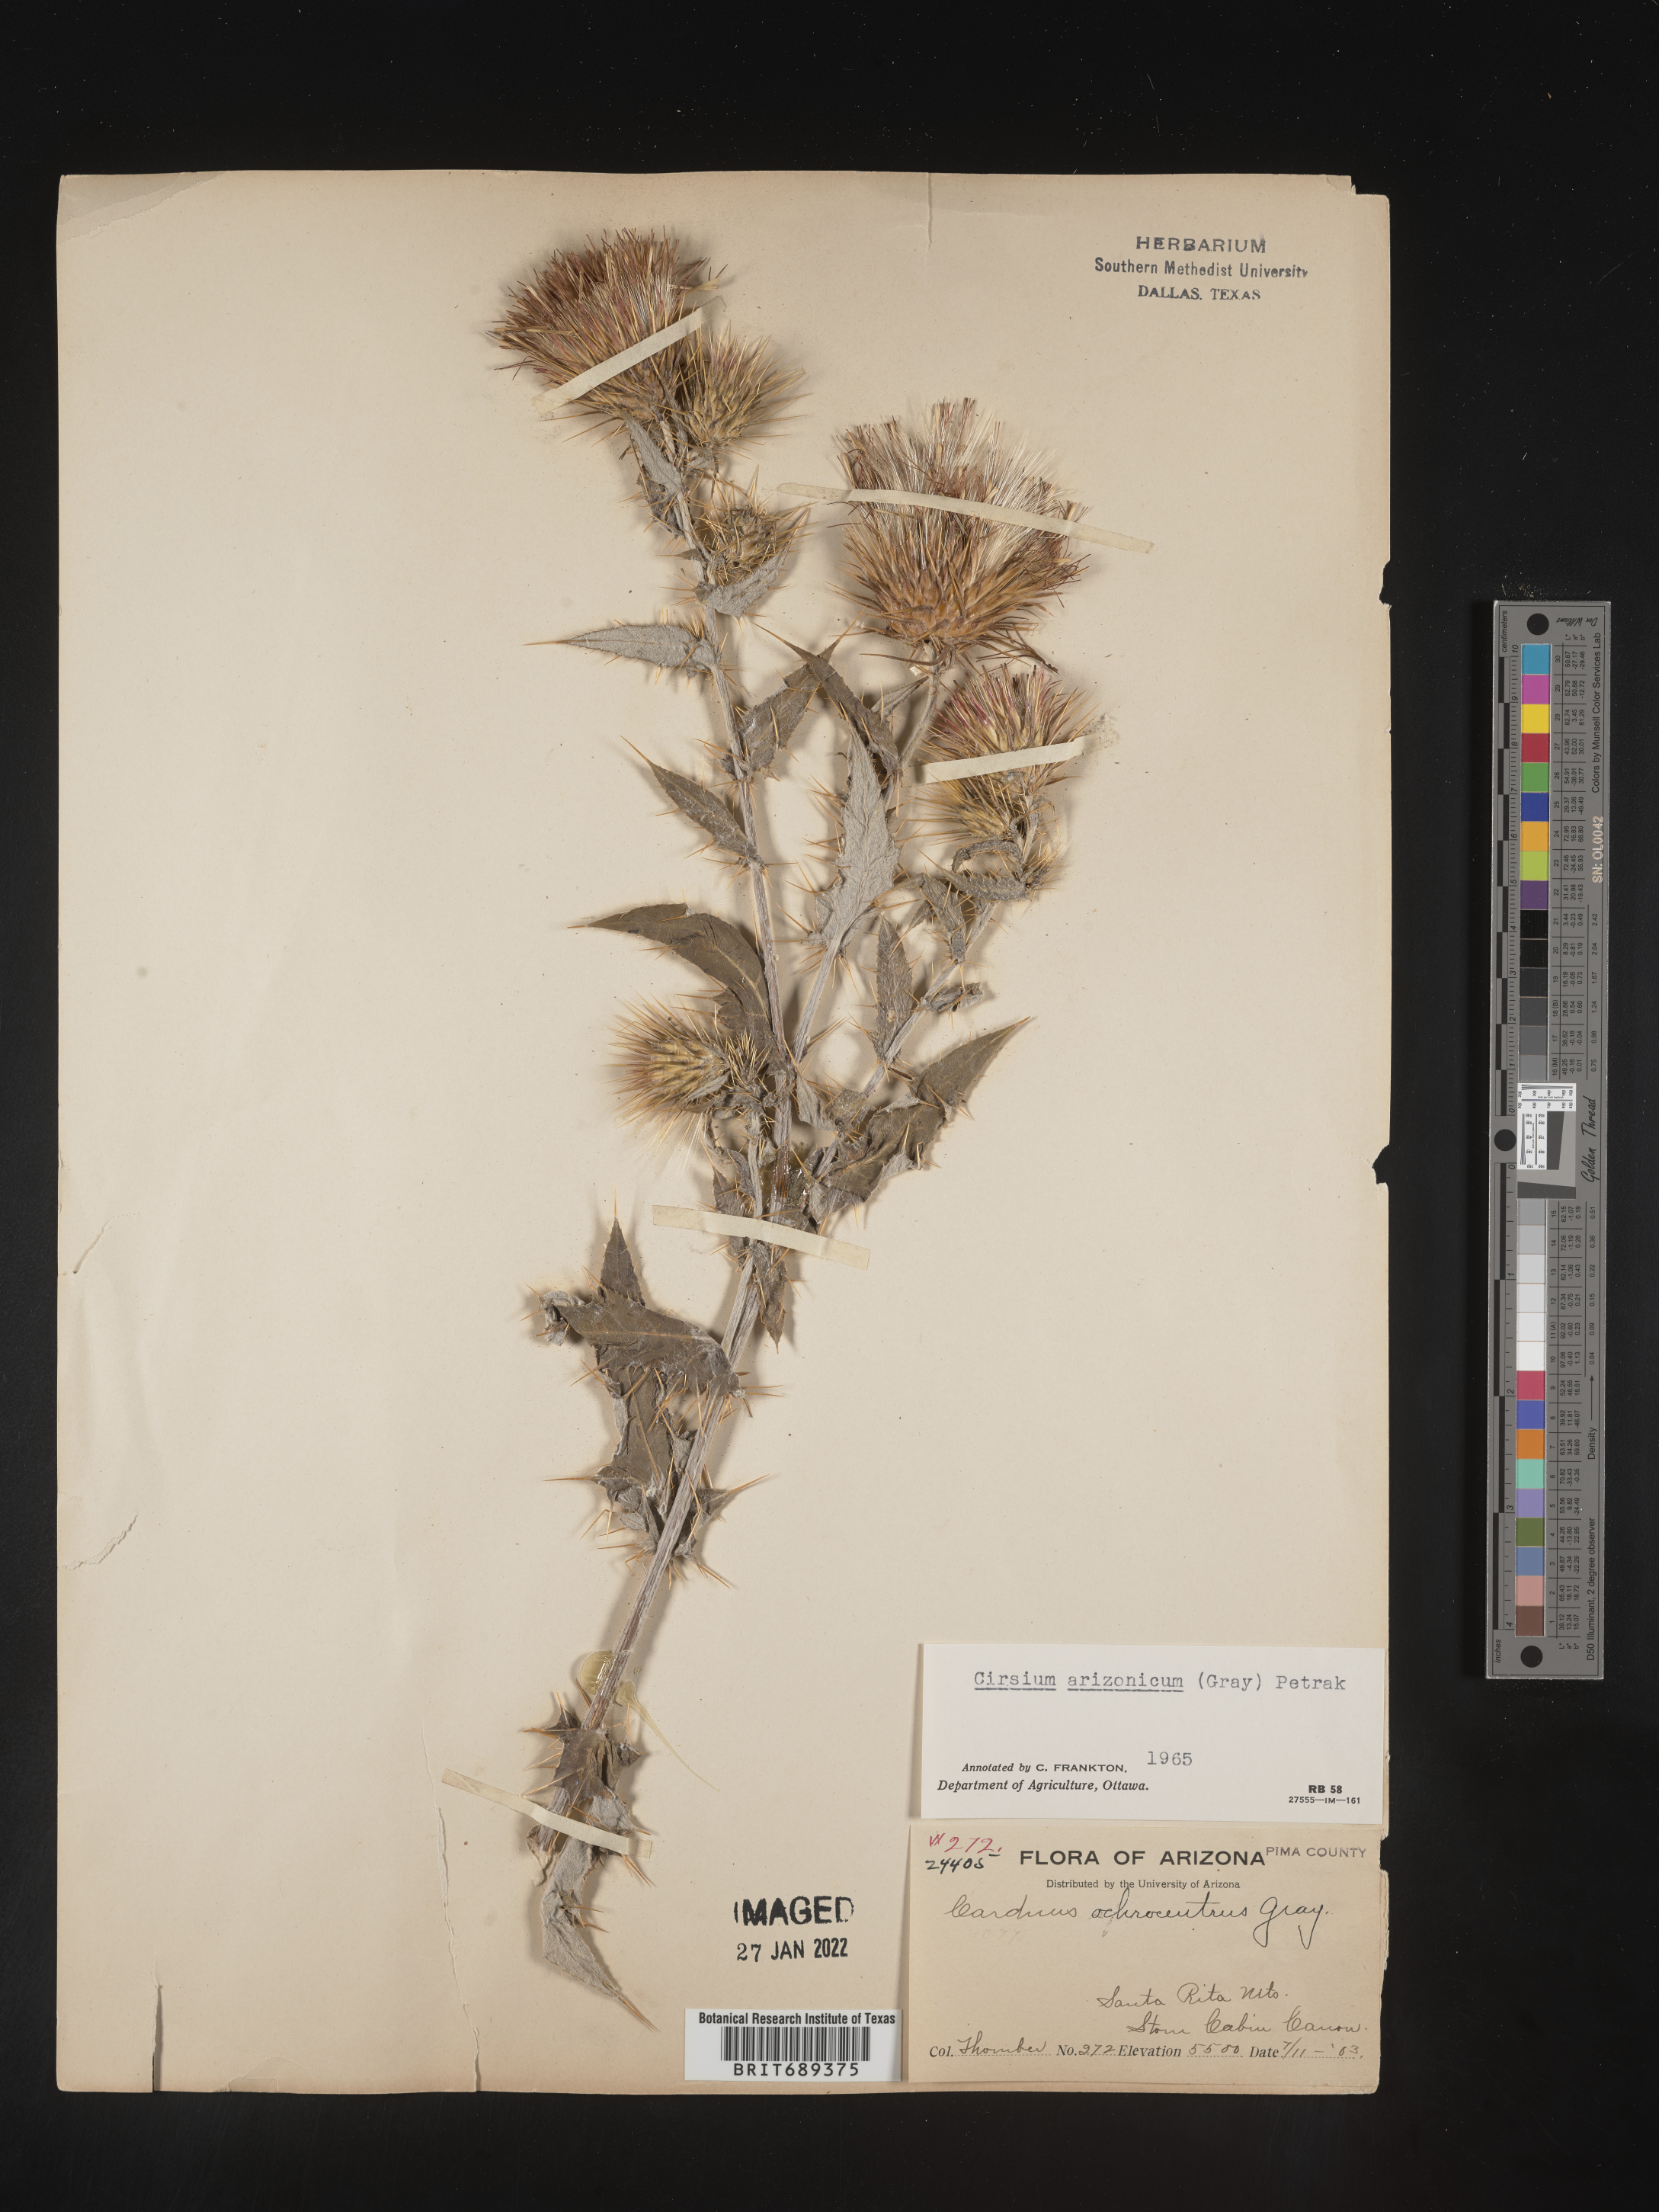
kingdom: Plantae
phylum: Tracheophyta
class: Magnoliopsida
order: Asterales
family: Asteraceae
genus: Cirsium
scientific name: Cirsium arizonicum
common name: Arizona thistle
